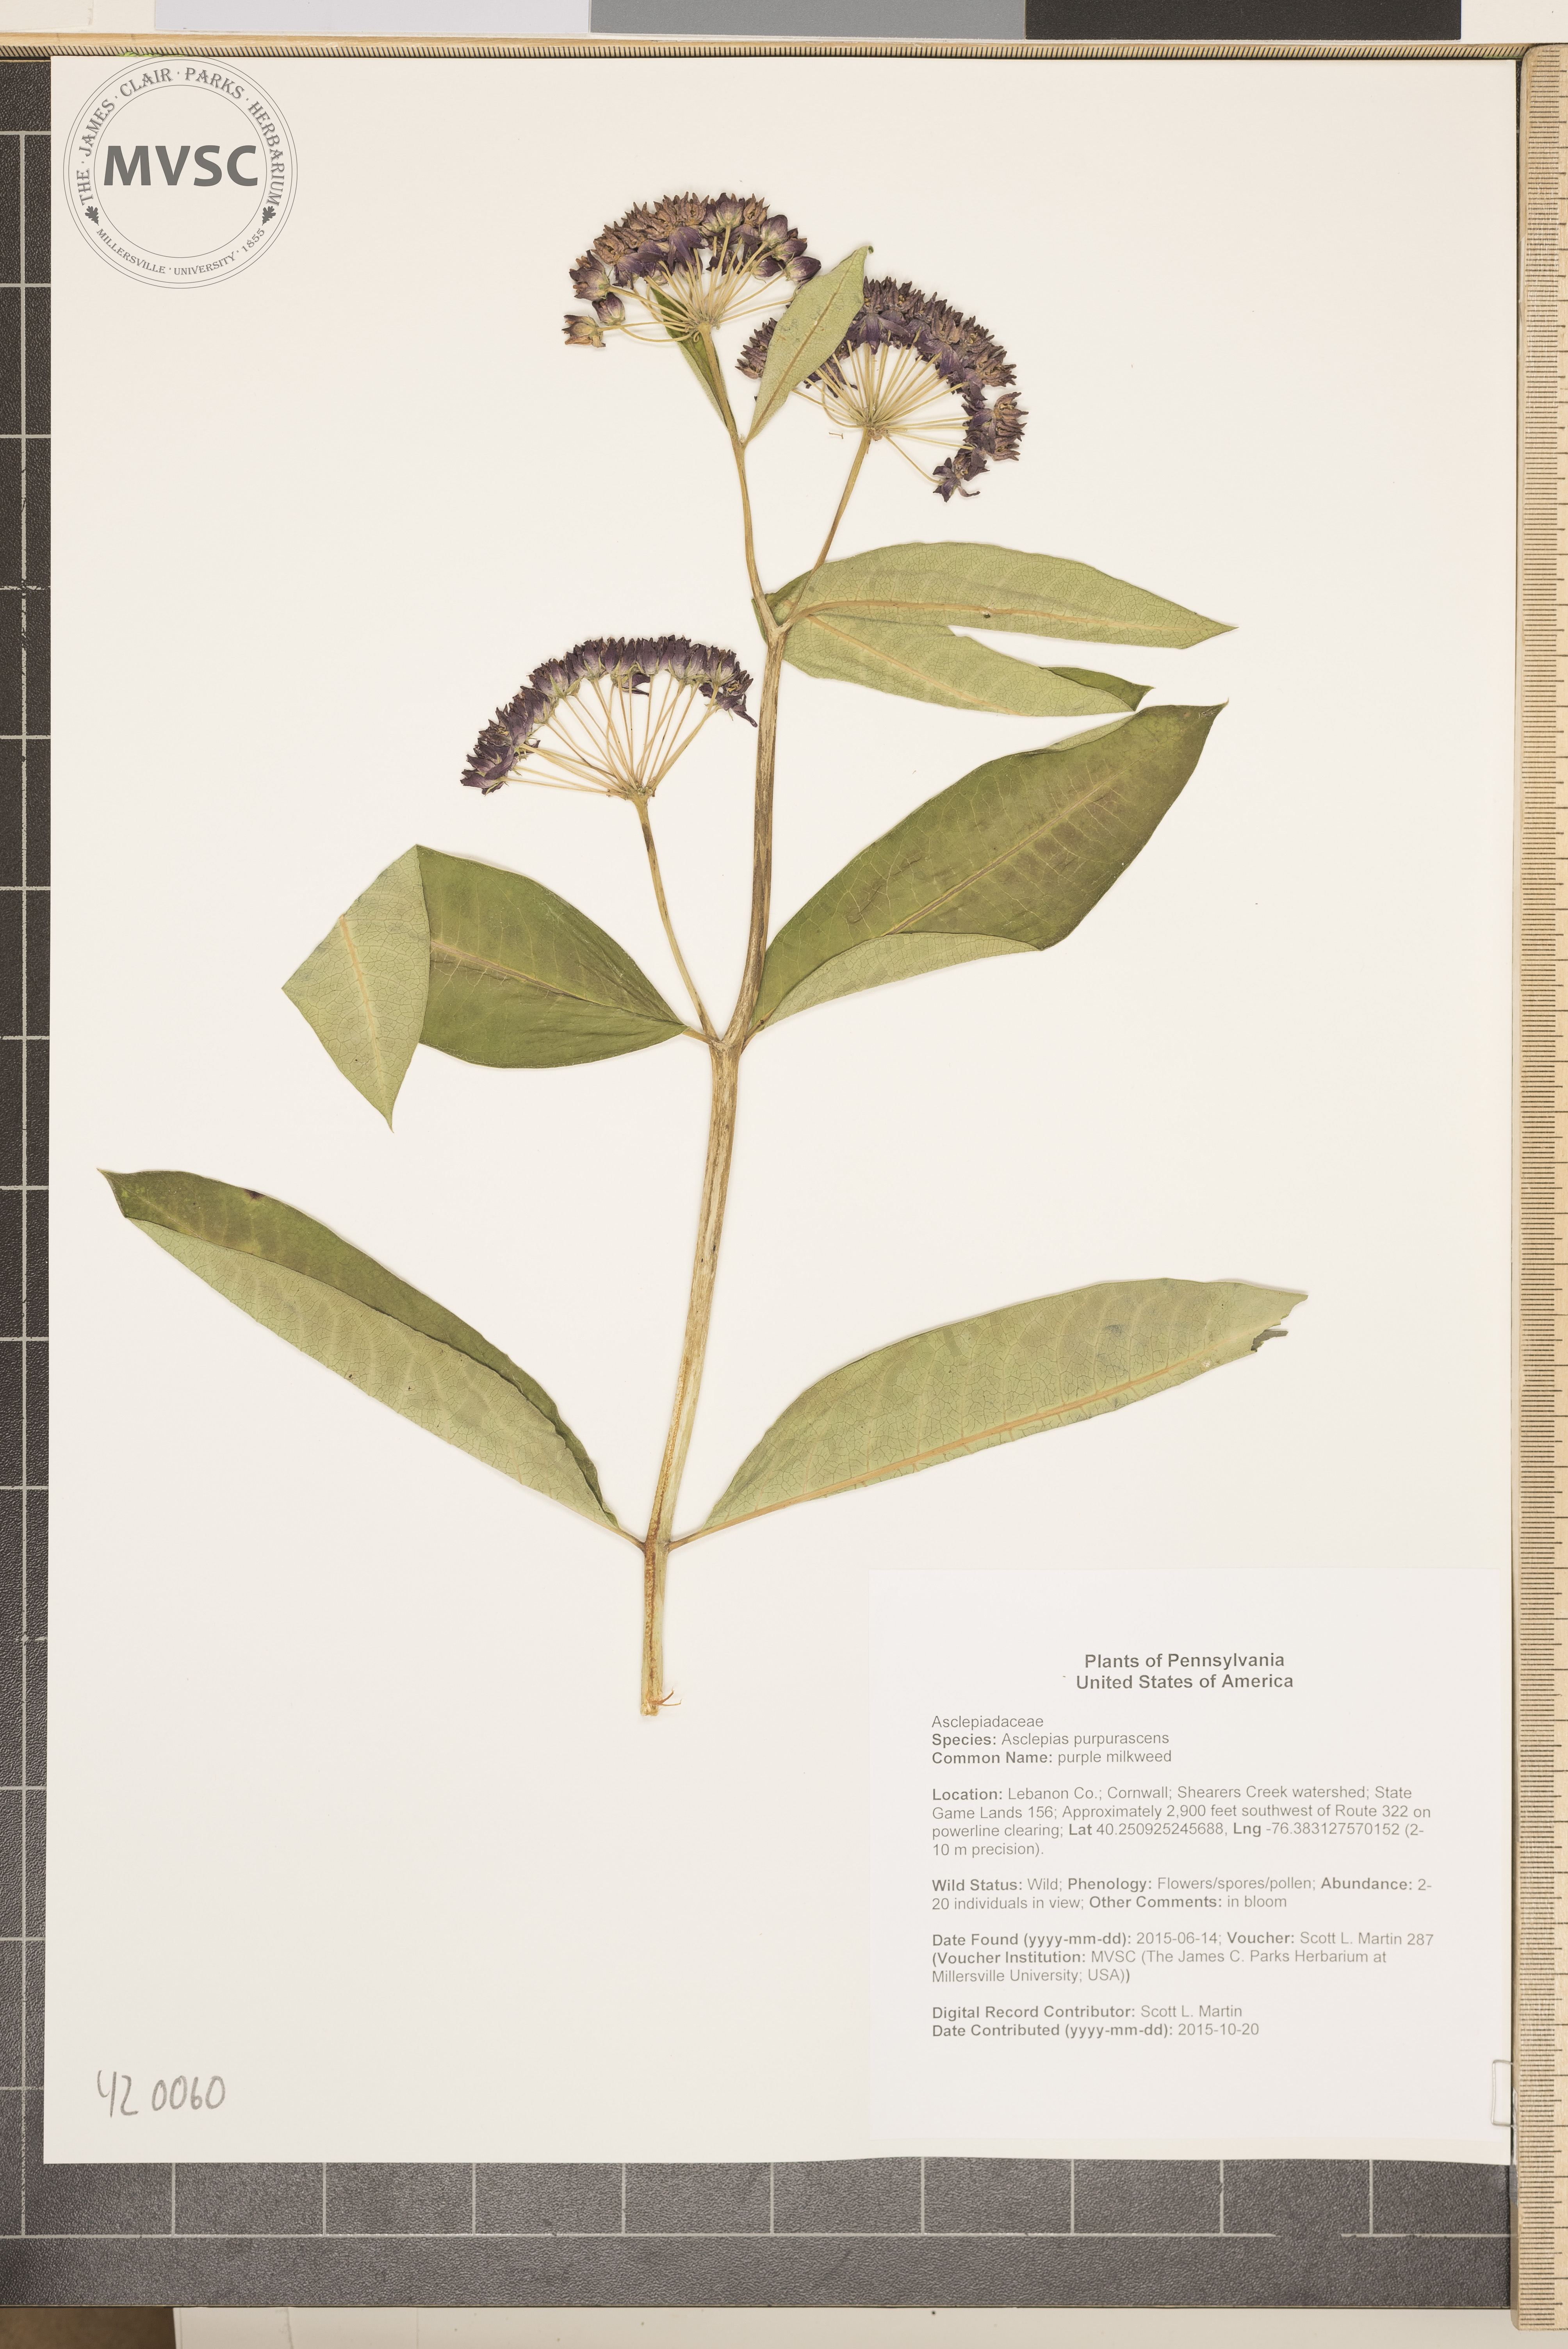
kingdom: Plantae
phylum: Tracheophyta
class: Magnoliopsida
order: Gentianales
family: Apocynaceae
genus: Asclepias
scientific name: Asclepias purpurascens
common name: purple milkweed
